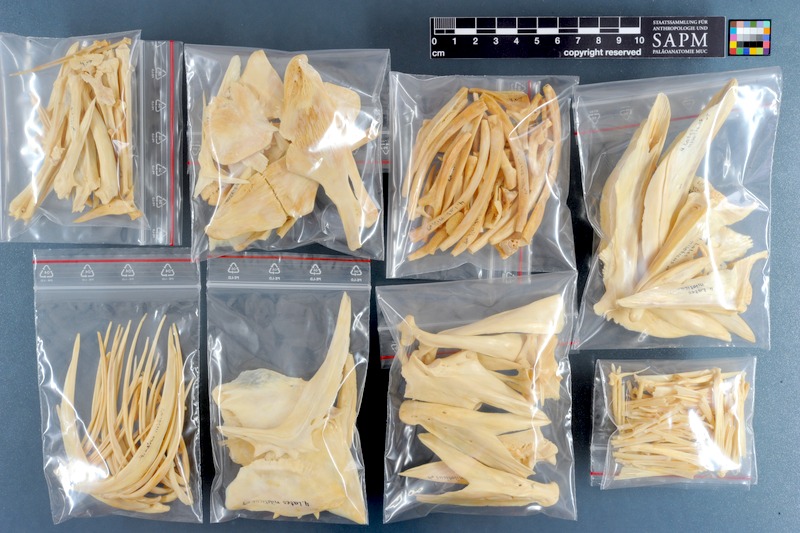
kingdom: Animalia
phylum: Chordata
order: Perciformes
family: Latidae
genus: Lates
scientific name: Lates niloticus
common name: Nile perch
